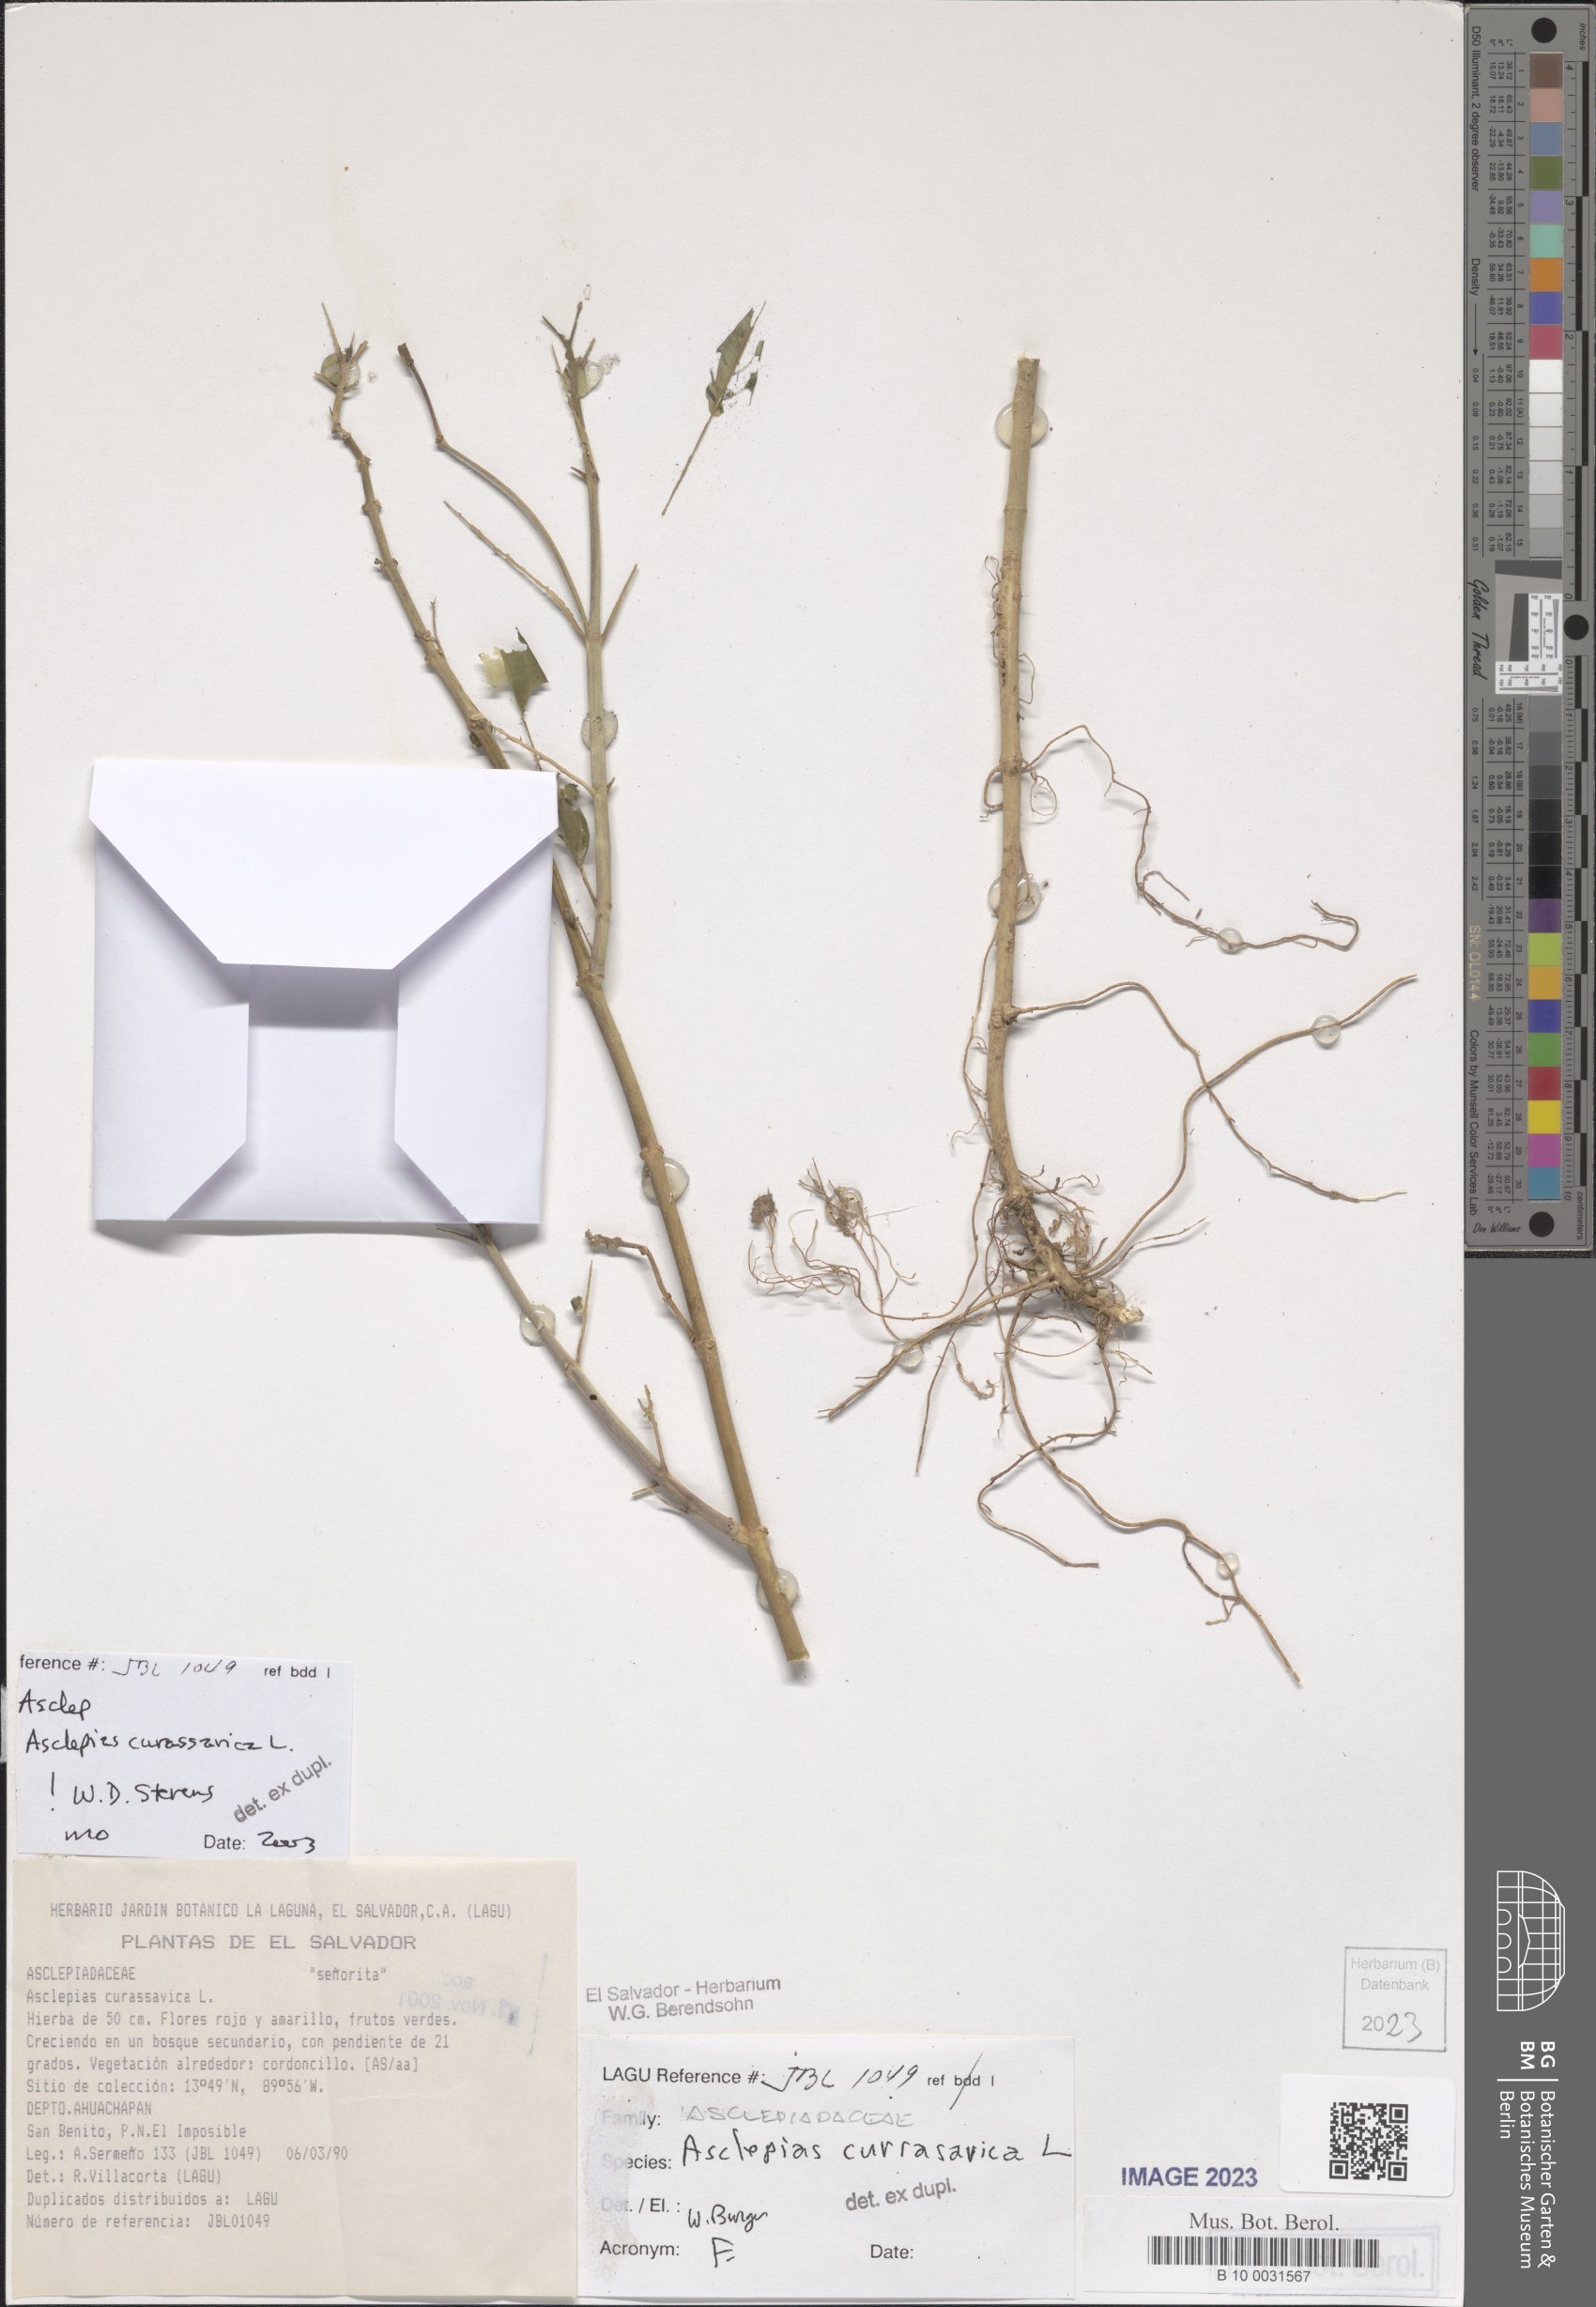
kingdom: Plantae
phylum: Tracheophyta
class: Magnoliopsida
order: Gentianales
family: Apocynaceae
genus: Asclepias
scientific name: Asclepias curassavica
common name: Bloodflower
